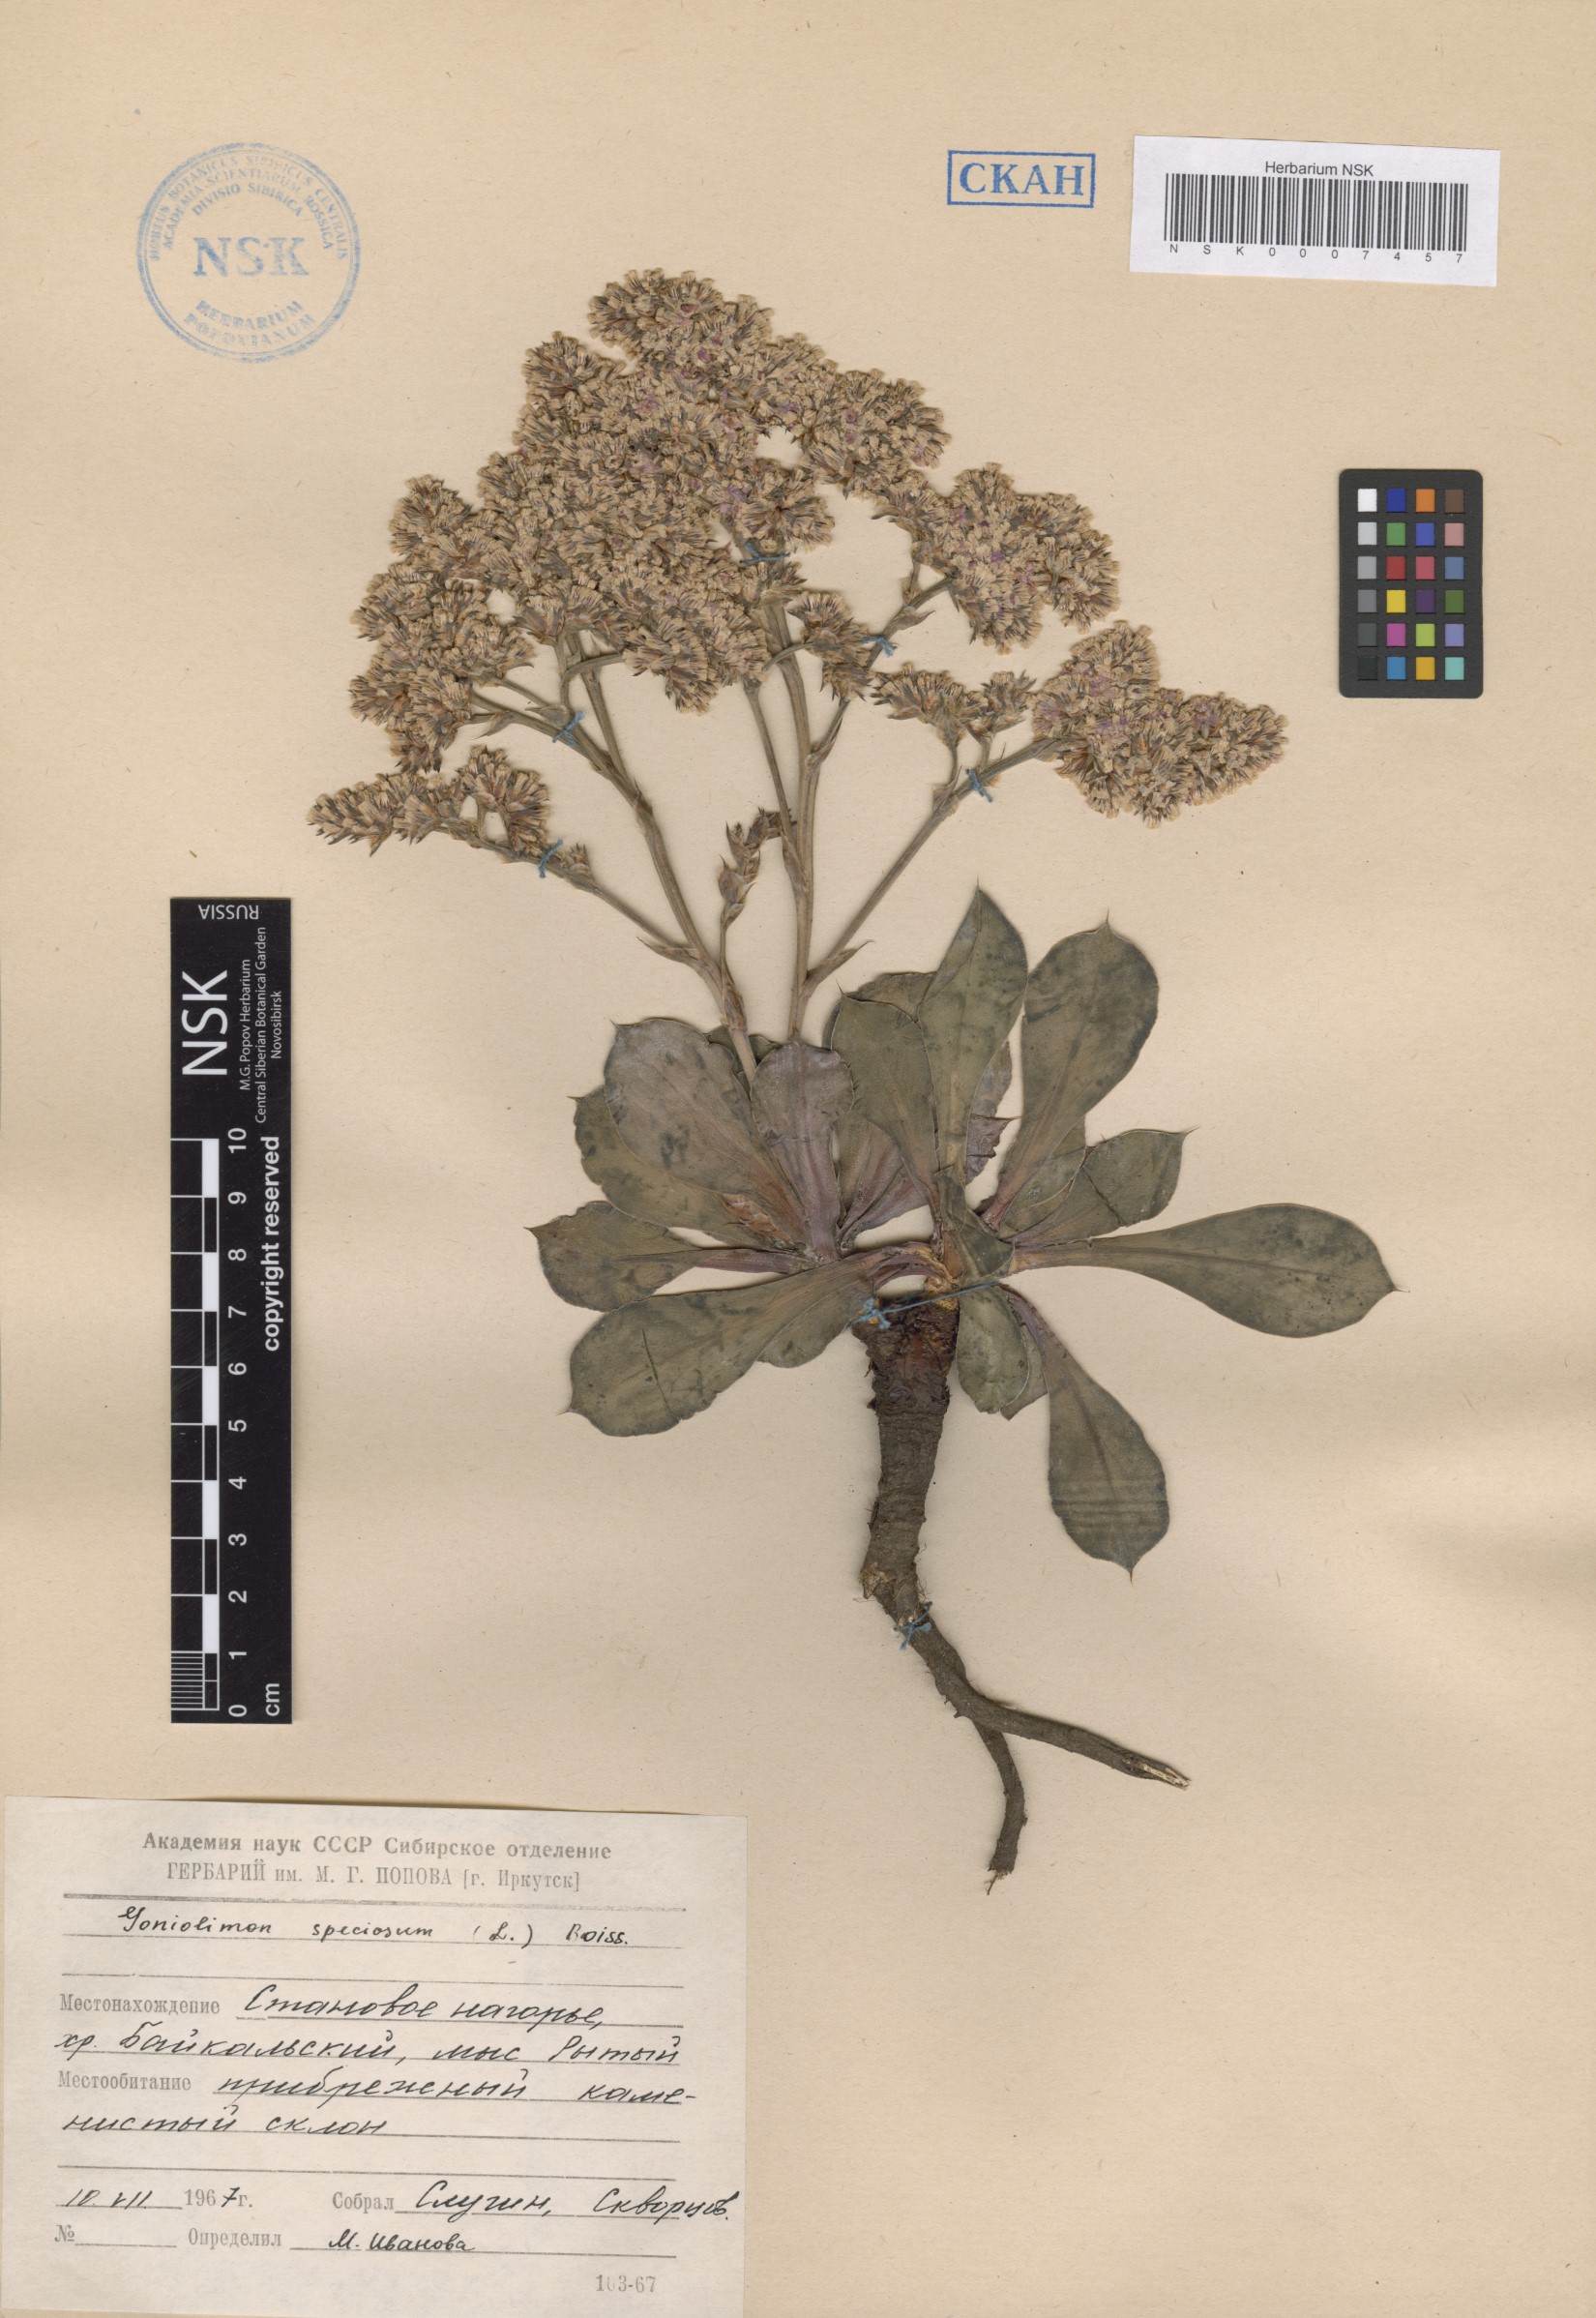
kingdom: Plantae
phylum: Tracheophyta
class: Magnoliopsida
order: Caryophyllales
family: Plumbaginaceae
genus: Goniolimon
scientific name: Goniolimon speciosum
